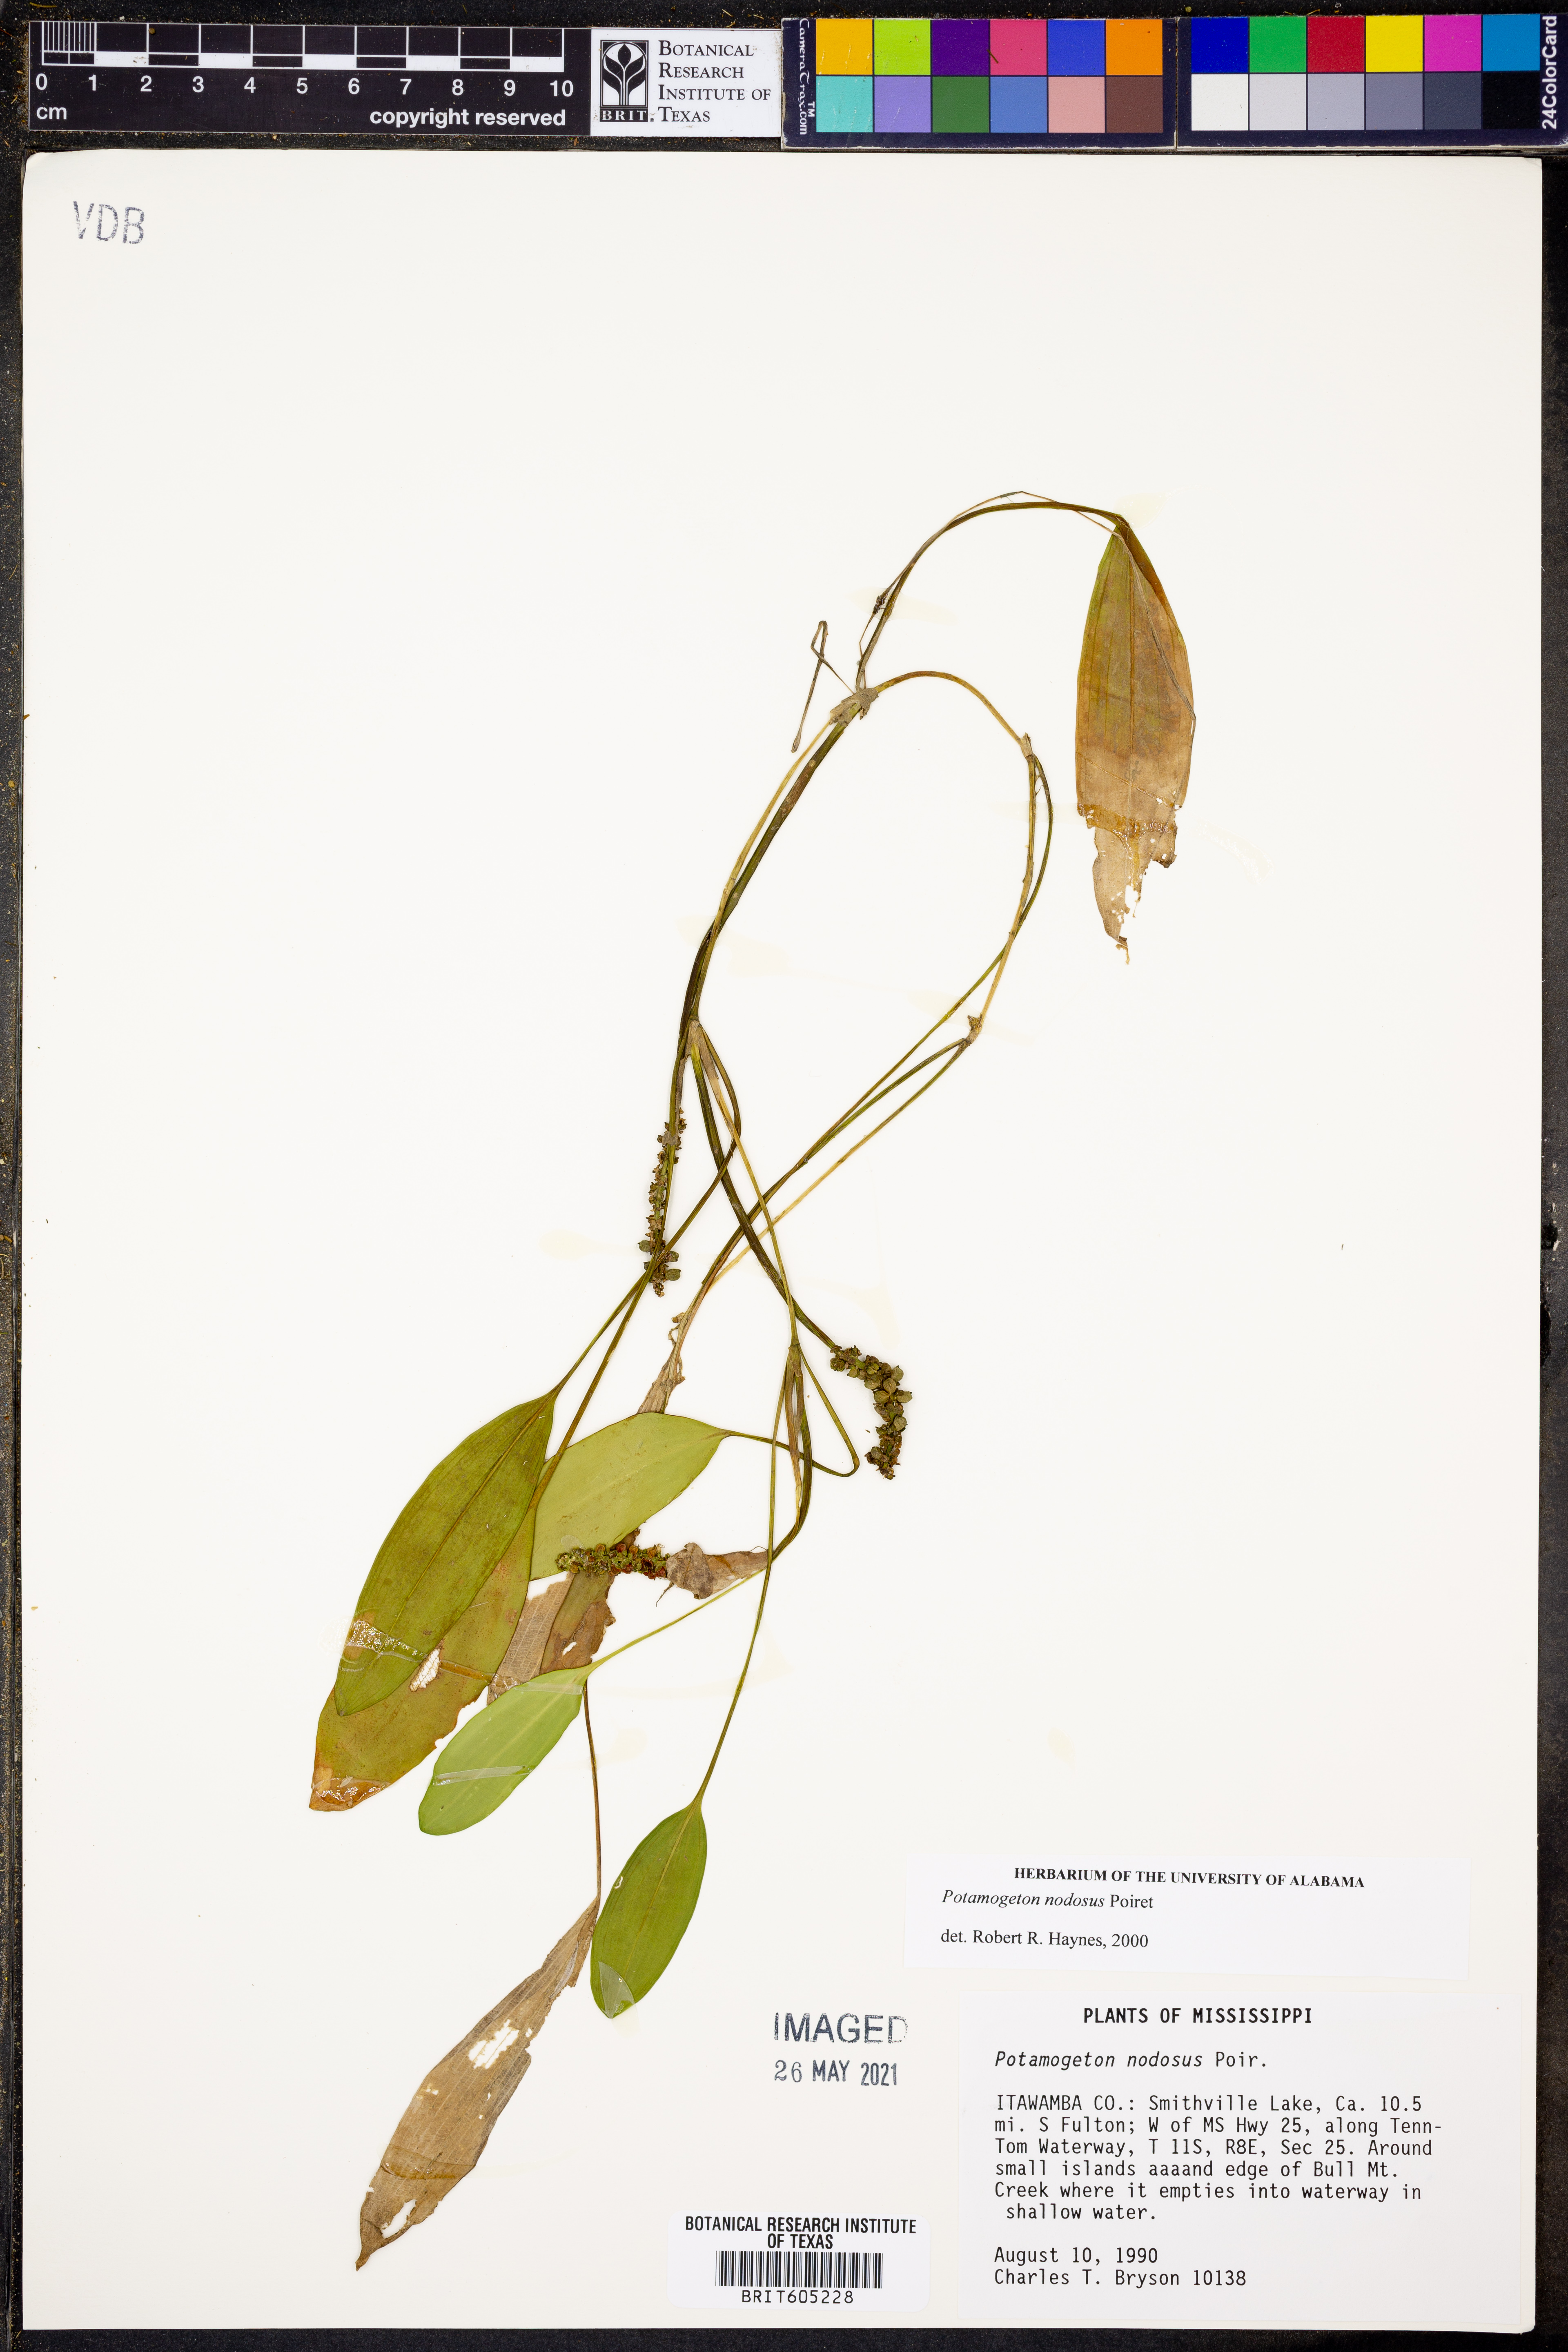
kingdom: Plantae
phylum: Tracheophyta
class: Liliopsida
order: Alismatales
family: Potamogetonaceae
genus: Potamogeton
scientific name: Potamogeton nodosus
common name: Loddon pondweed
